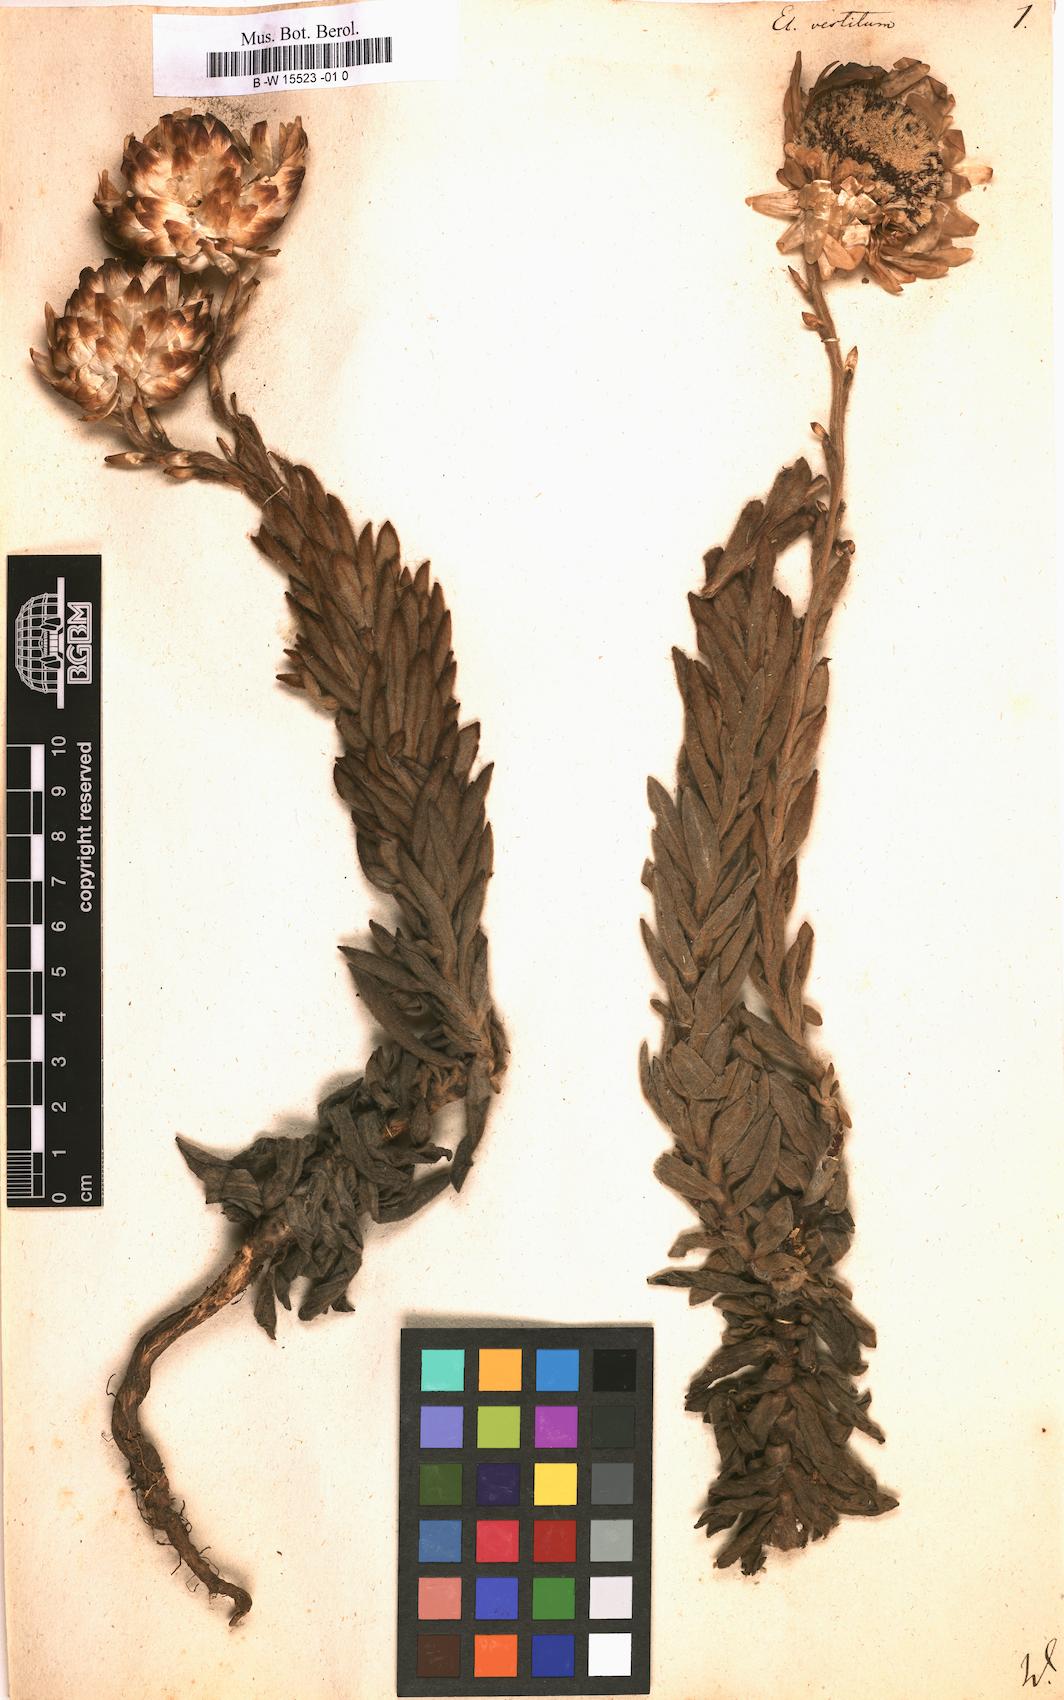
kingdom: Plantae
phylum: Tracheophyta
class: Magnoliopsida
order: Asterales
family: Asteraceae
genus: Syncarpha
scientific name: Syncarpha
